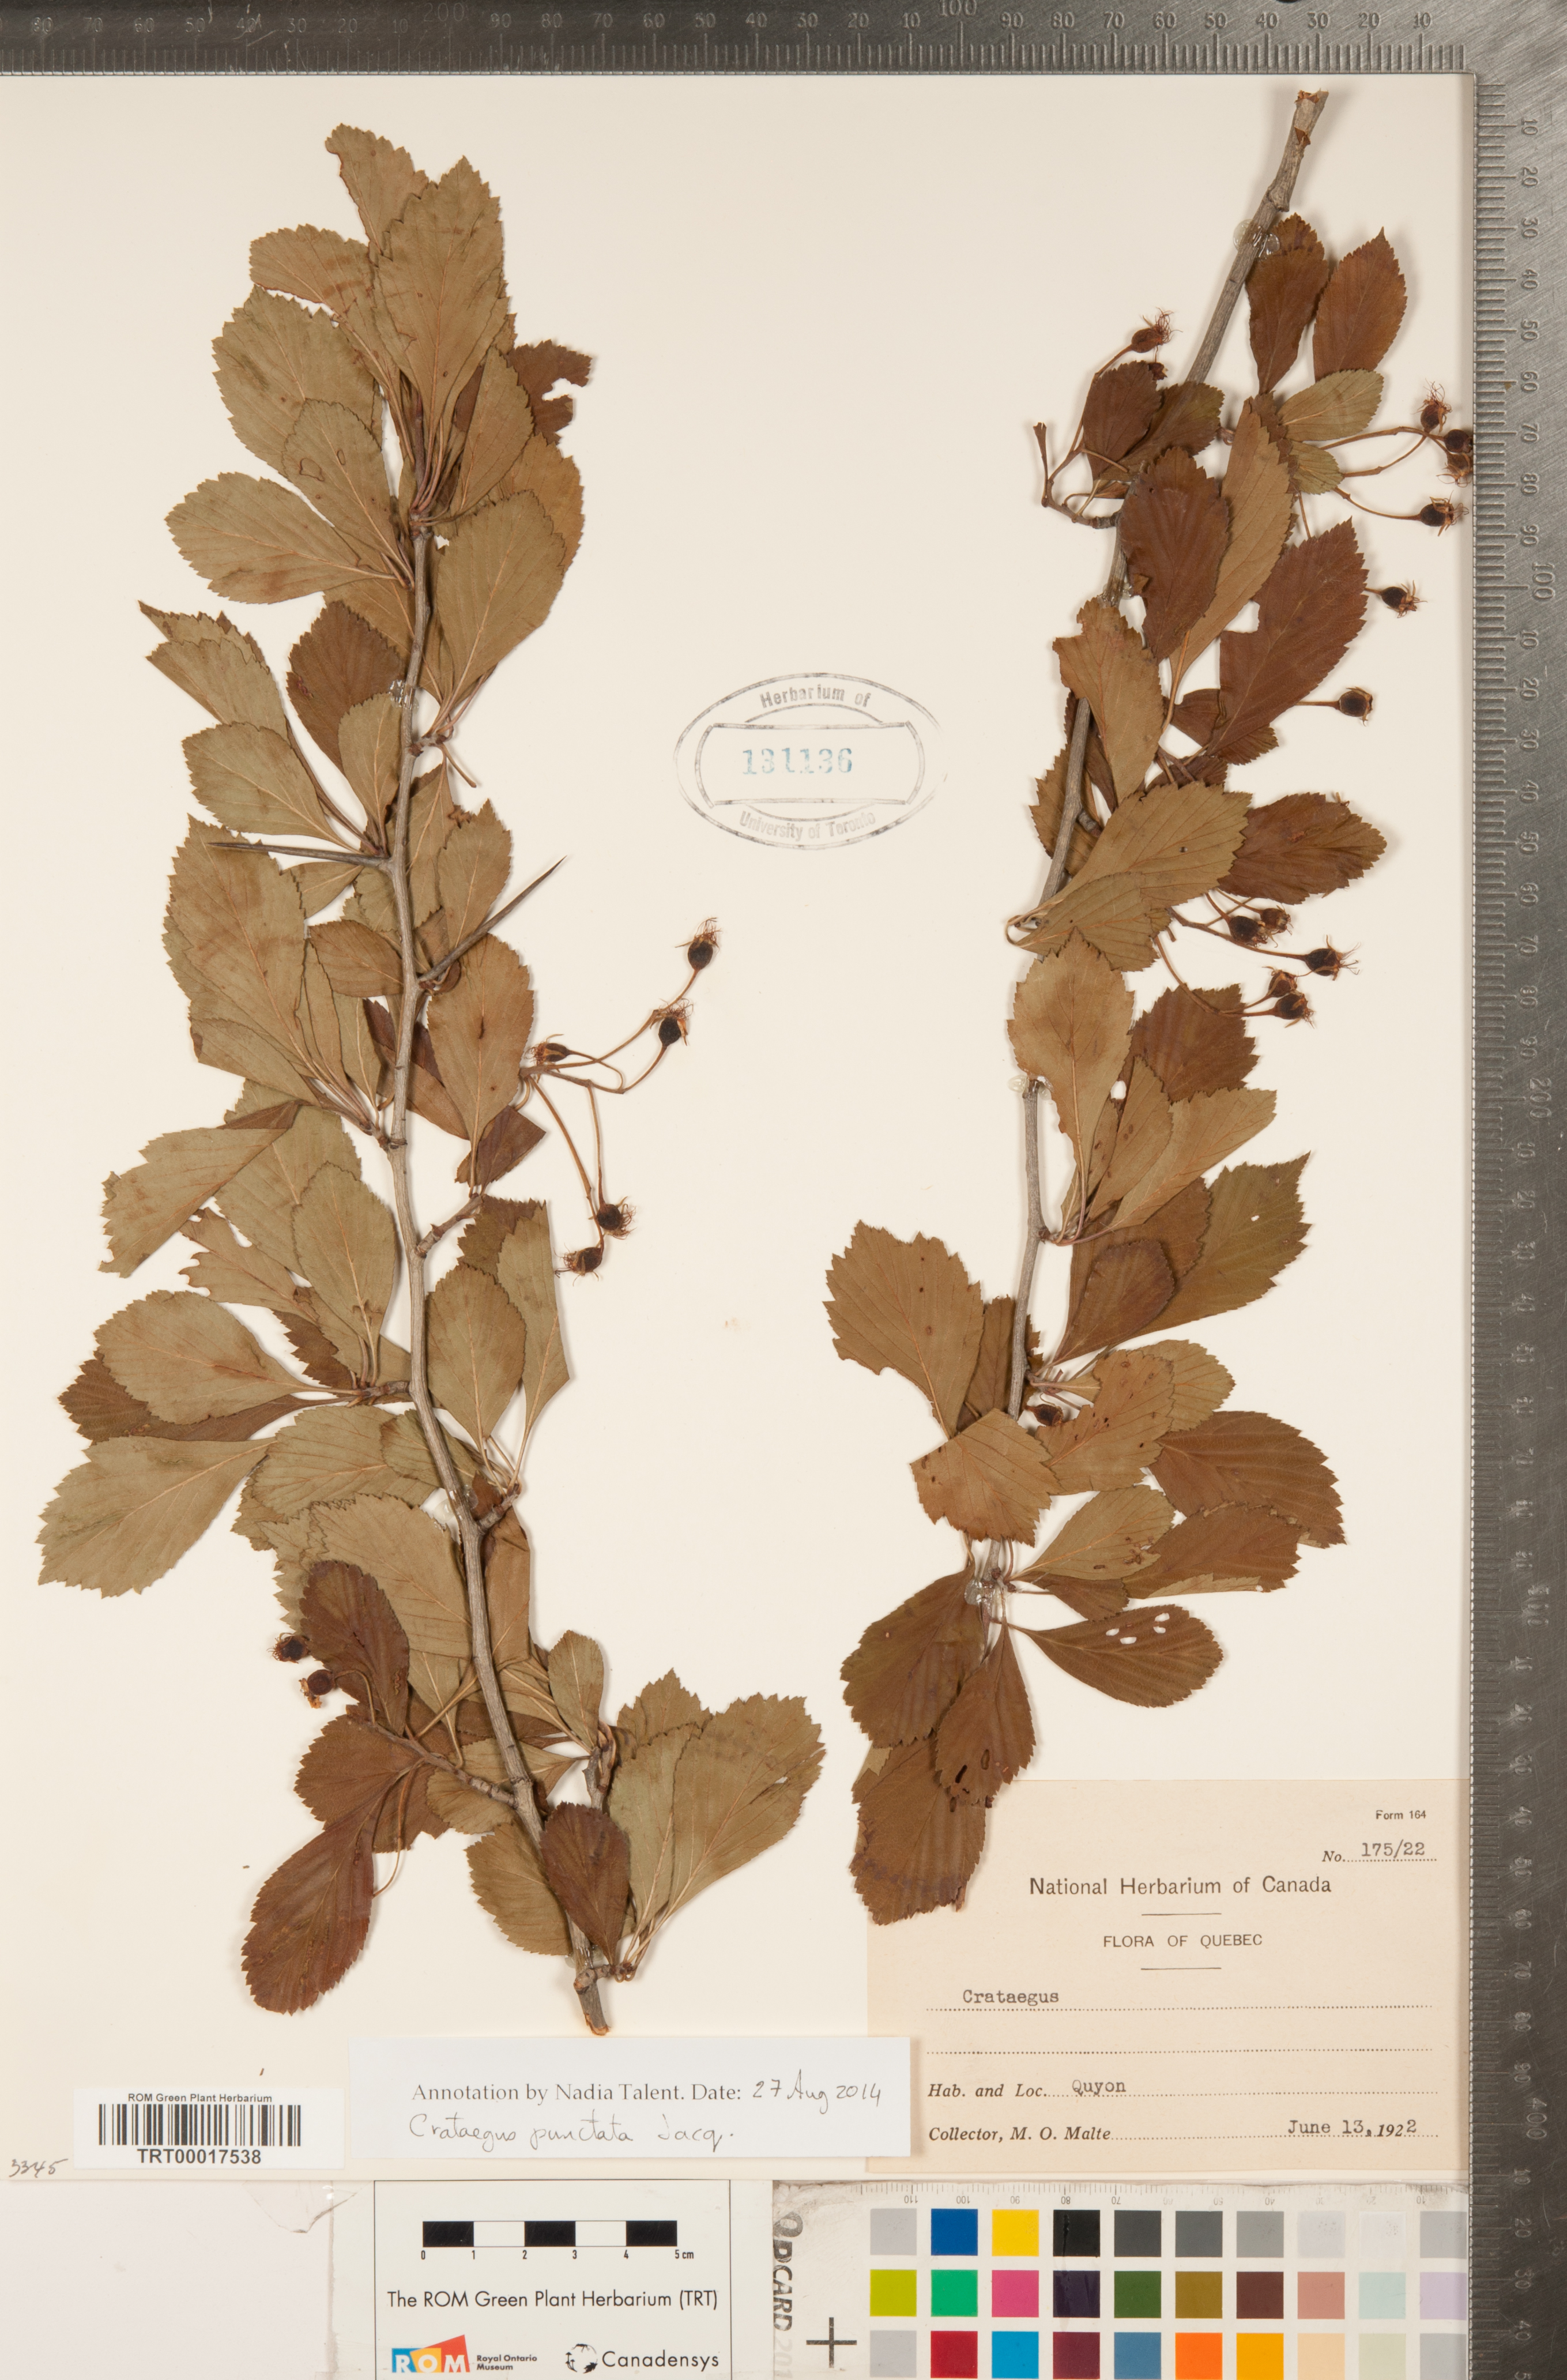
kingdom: Plantae
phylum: Tracheophyta
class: Magnoliopsida
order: Rosales
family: Rosaceae
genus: Crataegus
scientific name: Crataegus punctata
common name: Dotted hawthorn
